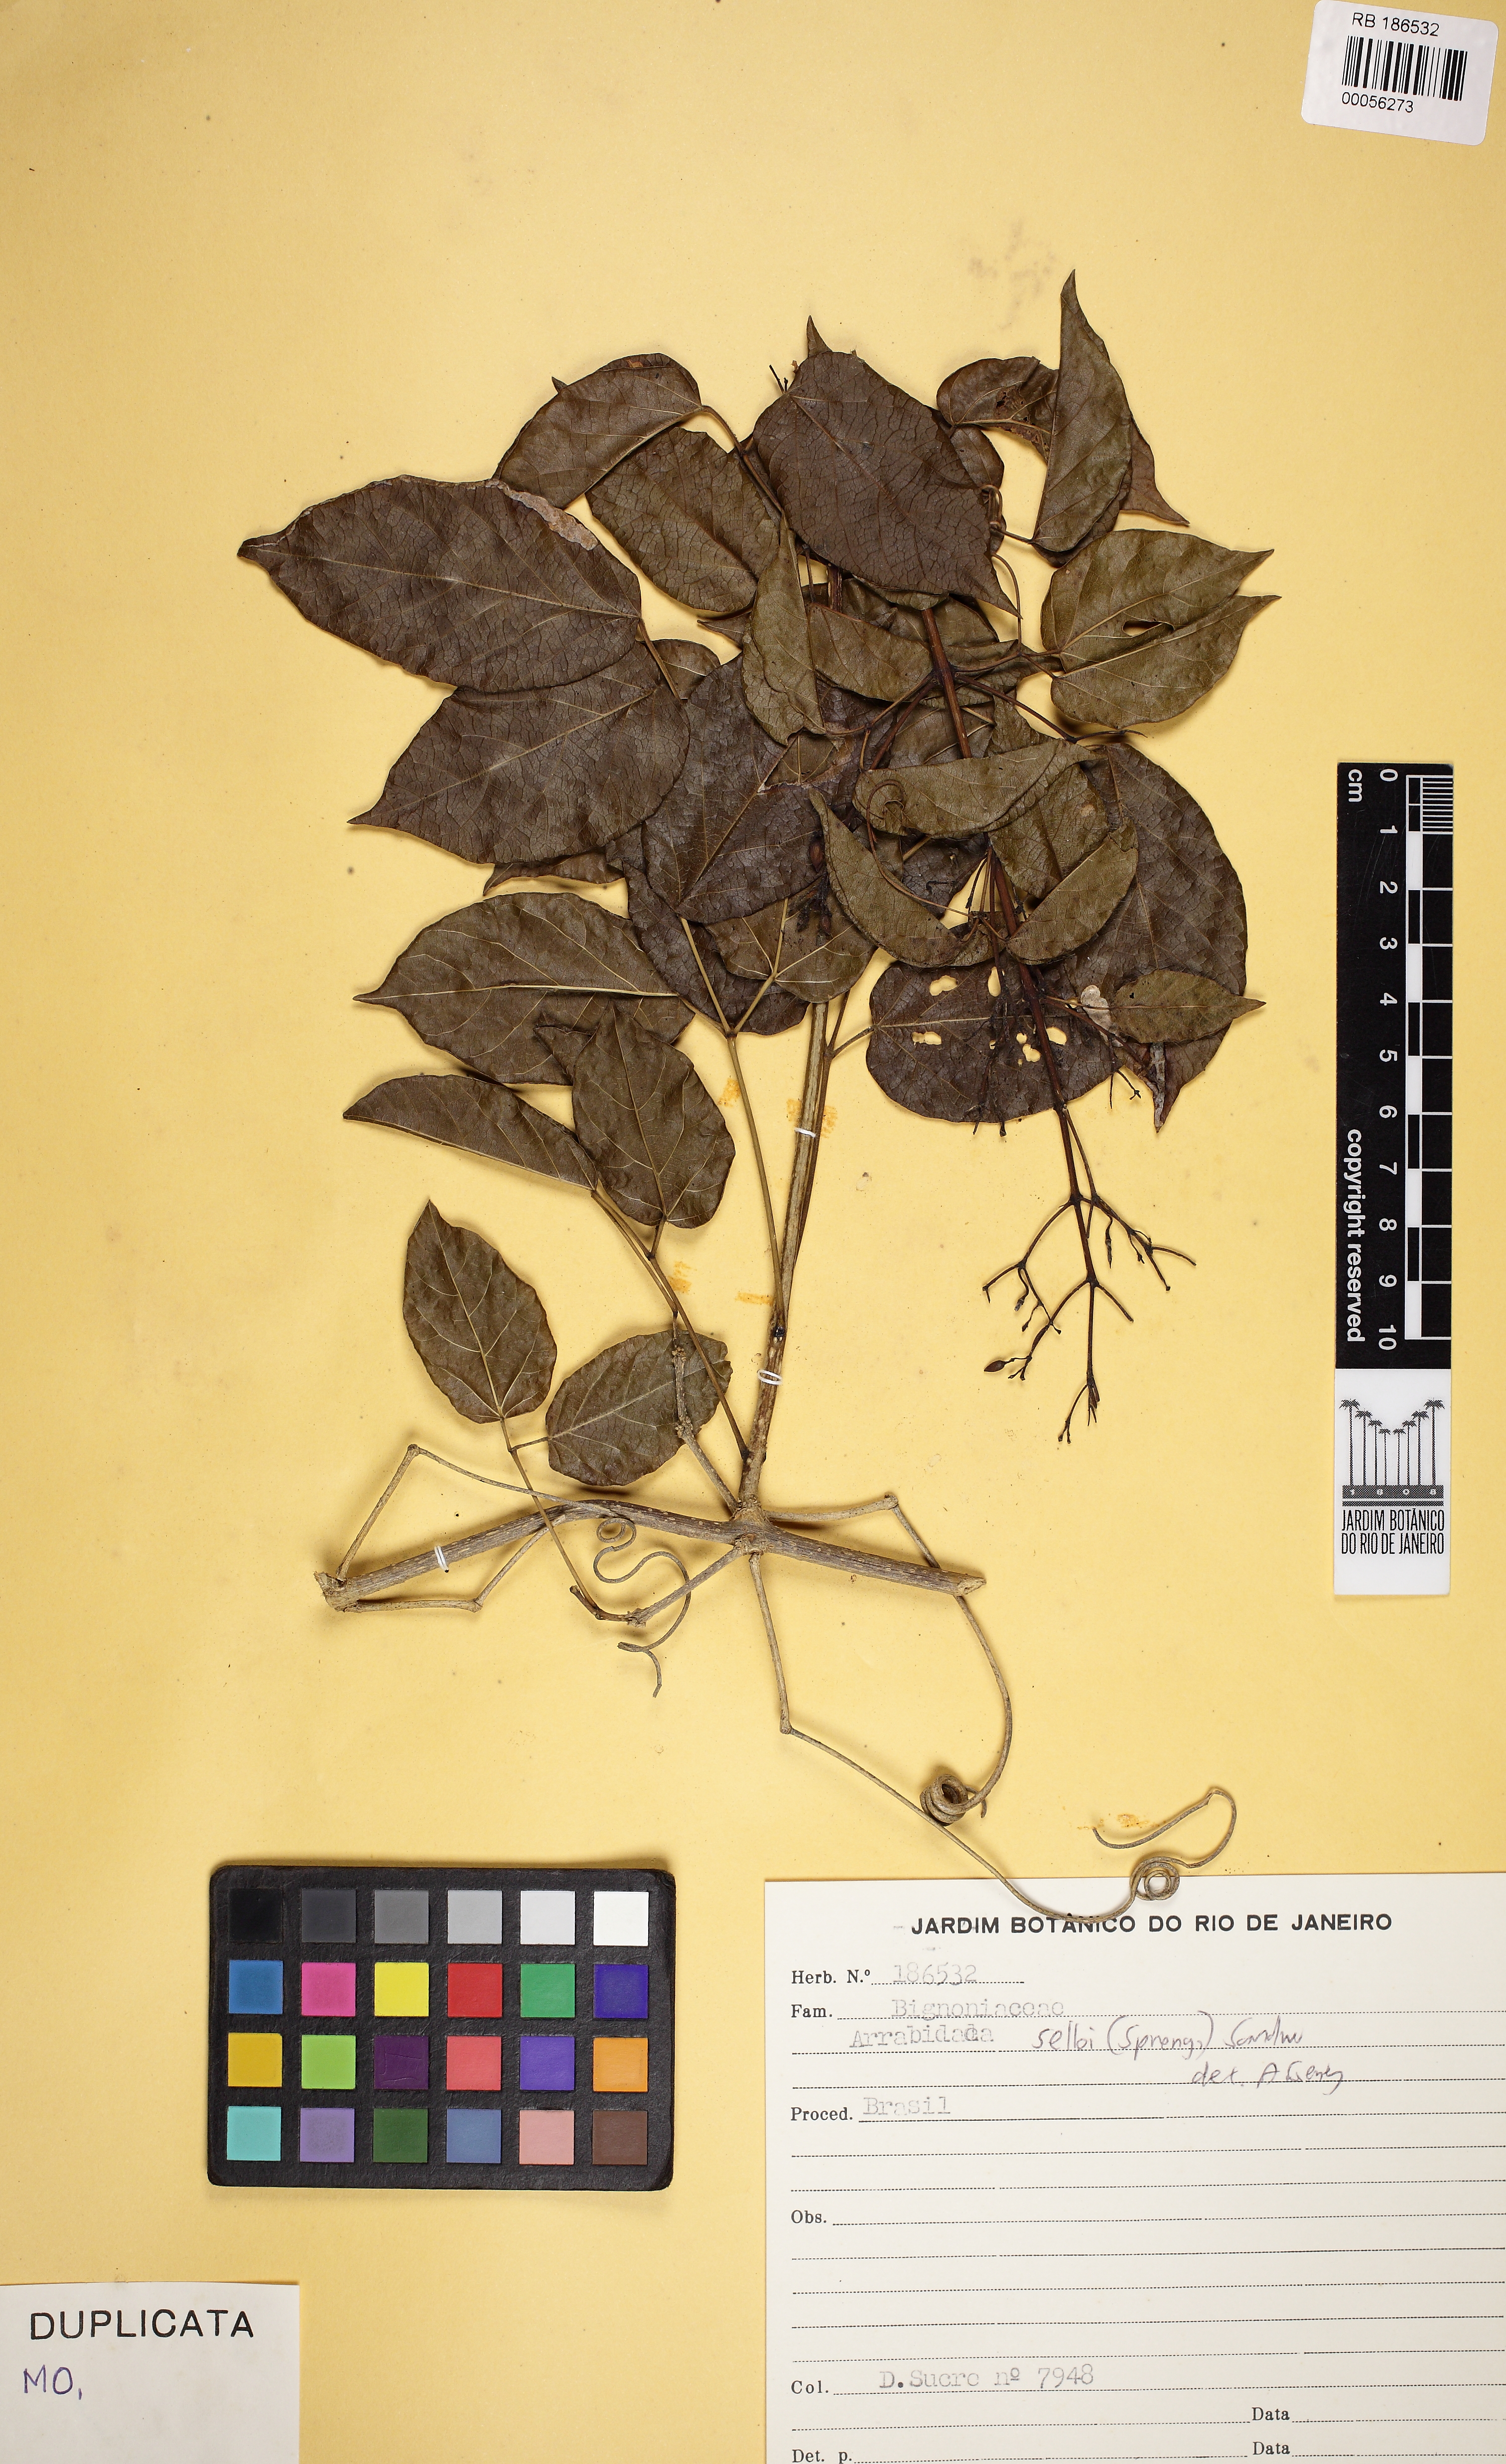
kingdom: Plantae
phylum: Tracheophyta
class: Magnoliopsida
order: Lamiales
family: Bignoniaceae
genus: Tanaecium
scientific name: Tanaecium selloi
